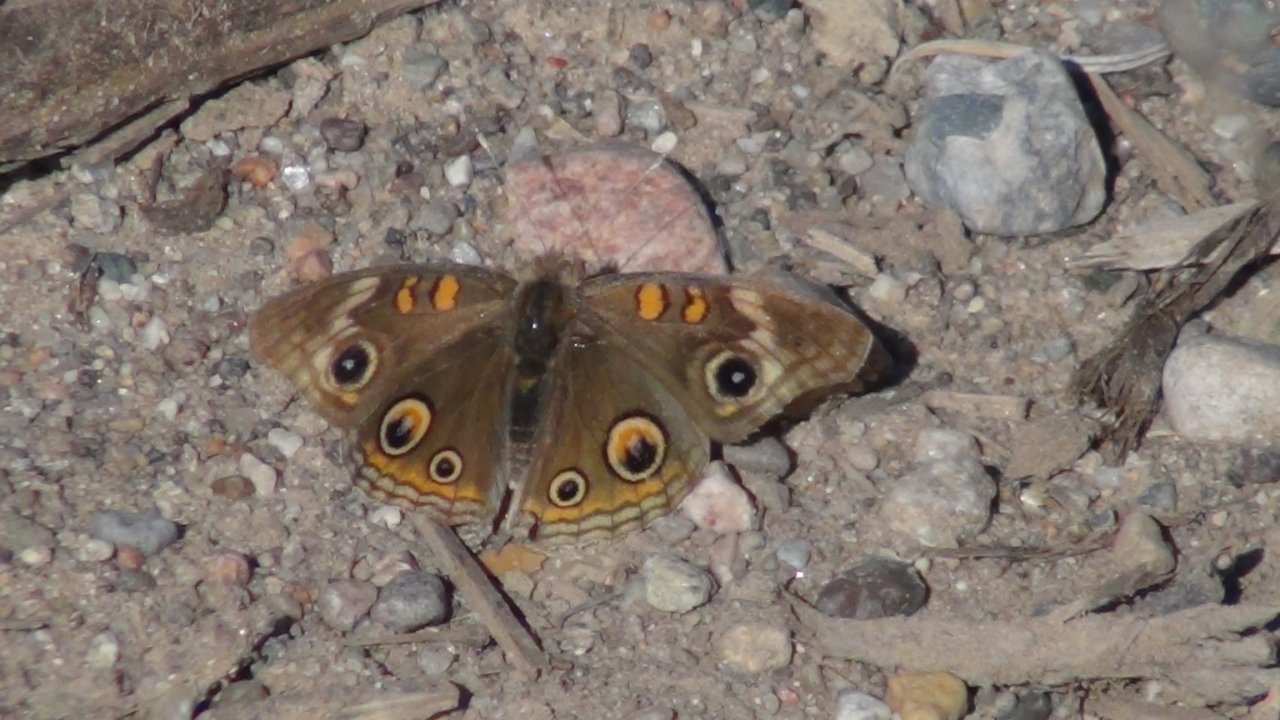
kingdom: Animalia
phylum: Arthropoda
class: Insecta
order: Lepidoptera
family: Nymphalidae
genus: Junonia
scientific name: Junonia coenia
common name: Common Buckeye
